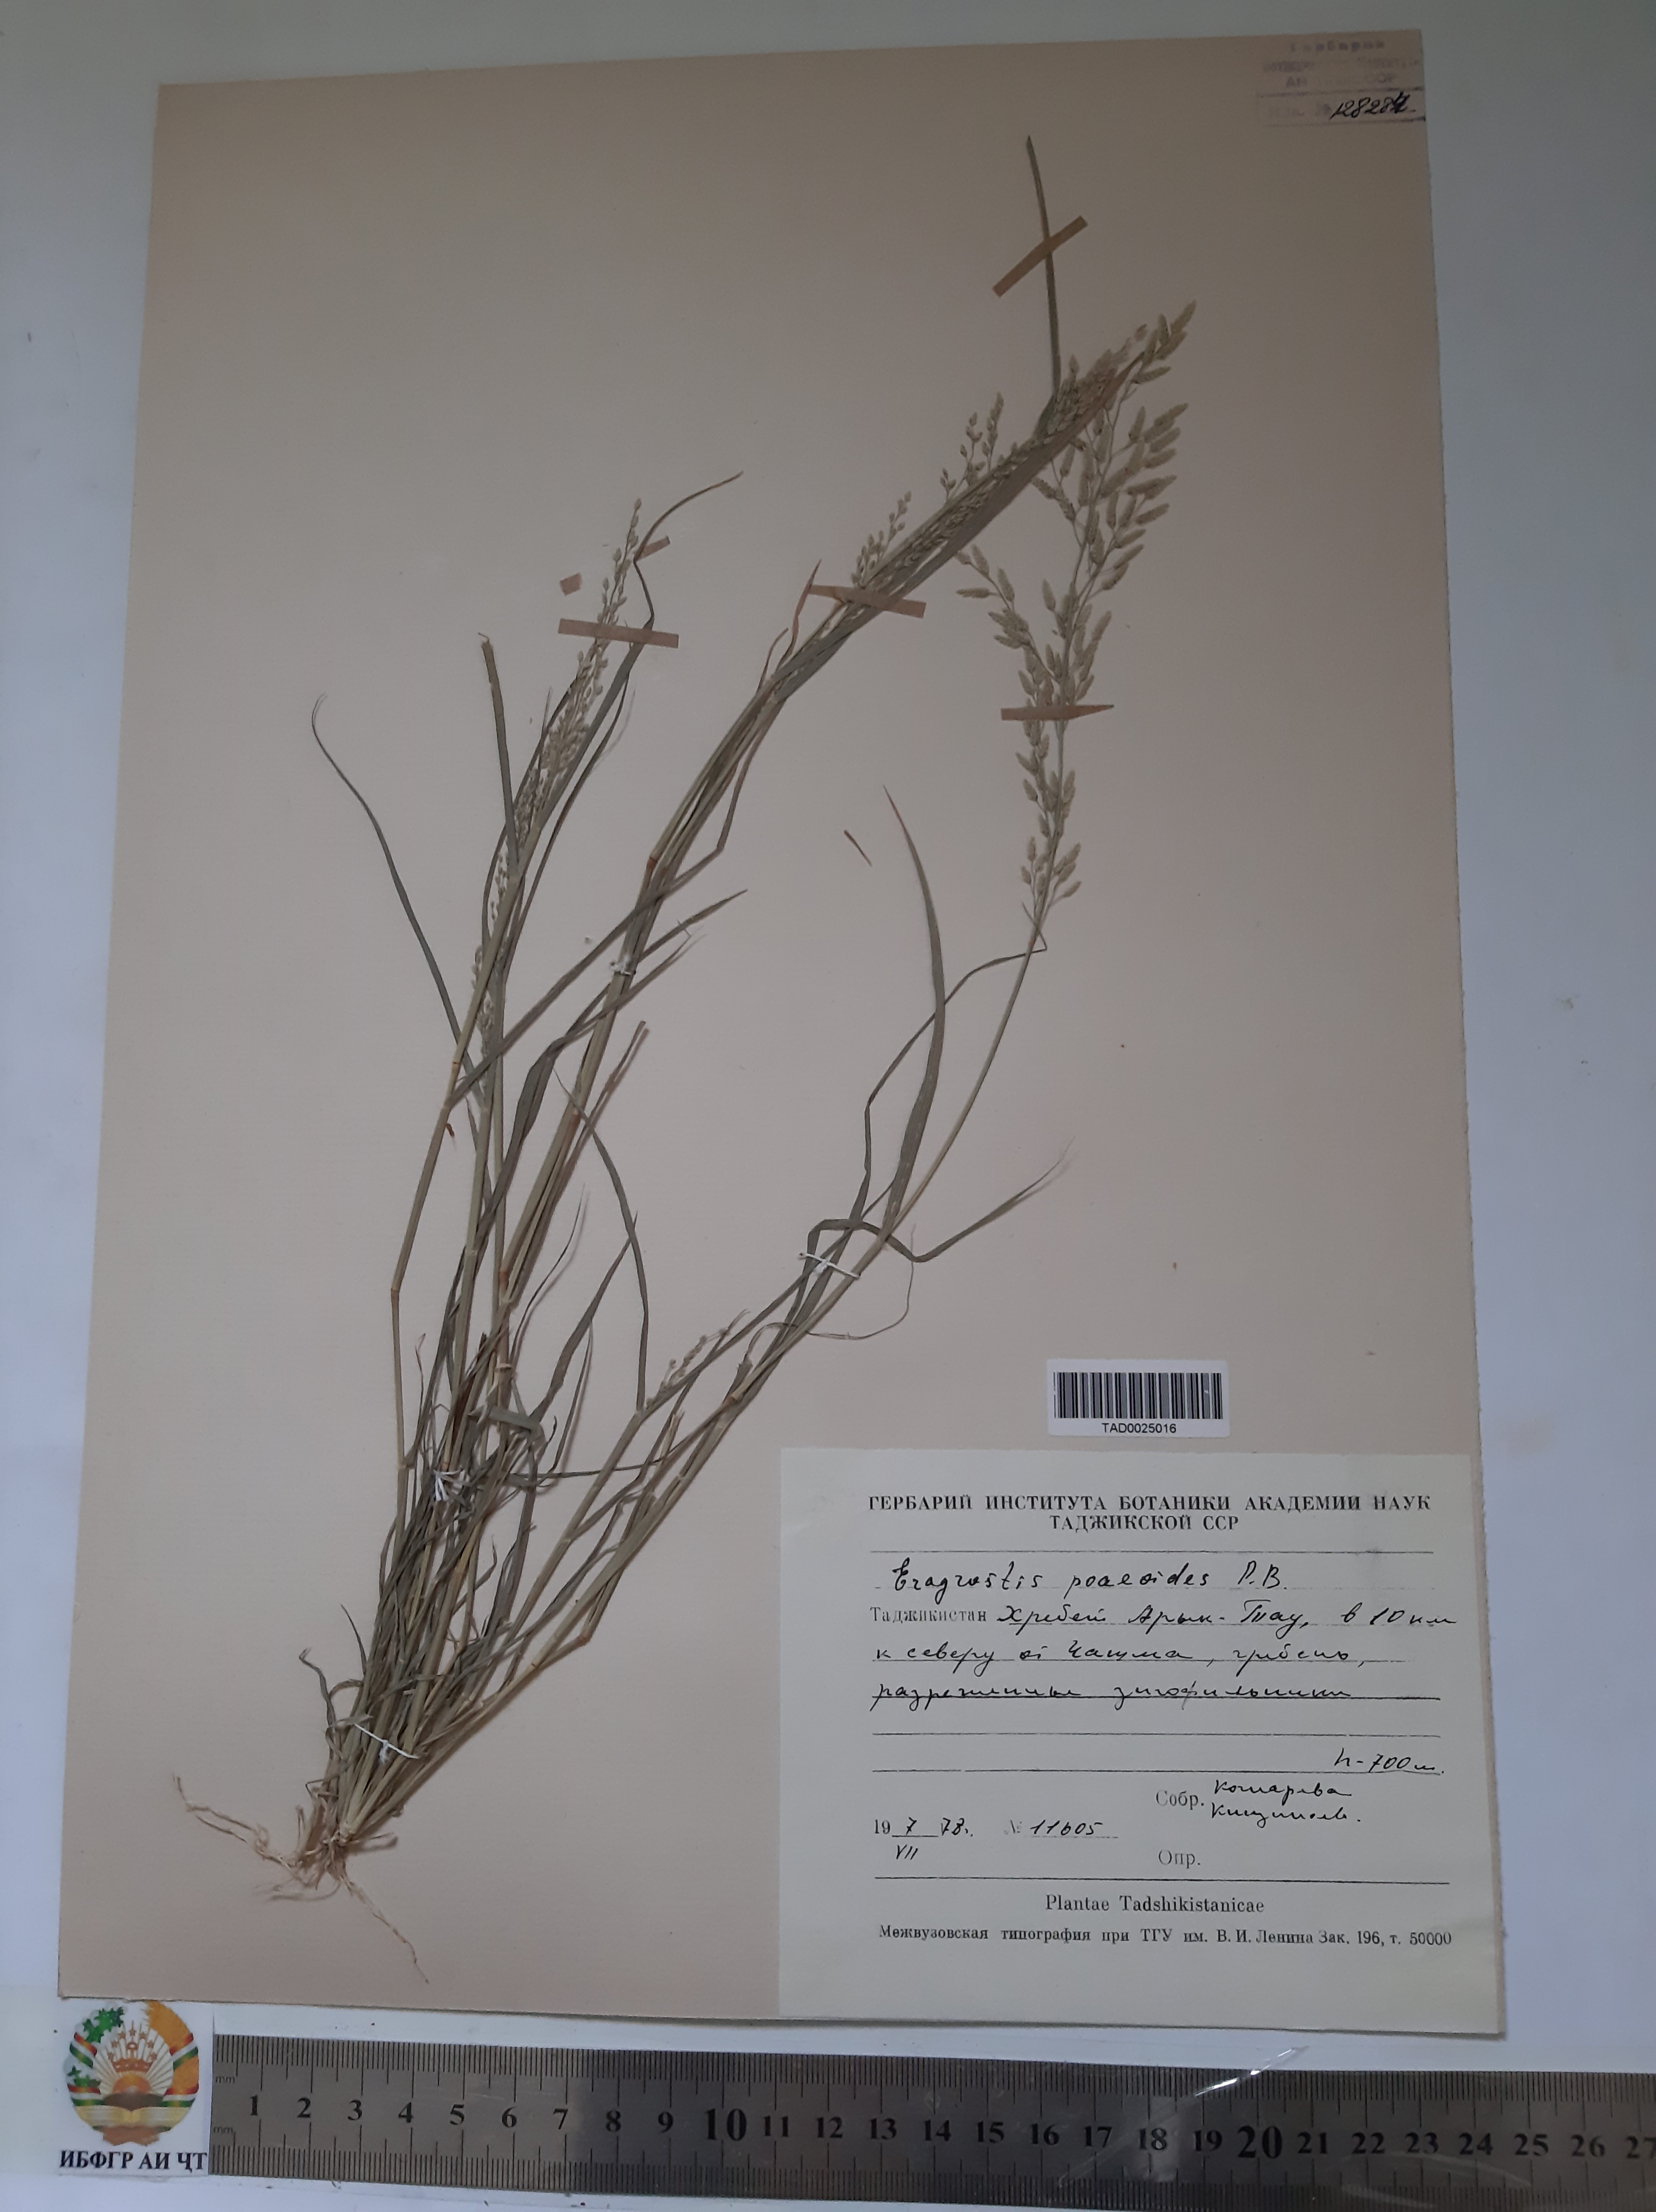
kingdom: Plantae
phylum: Tracheophyta
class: Liliopsida
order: Poales
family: Poaceae
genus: Eragrostis
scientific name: Eragrostis minor
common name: Small love-grass
